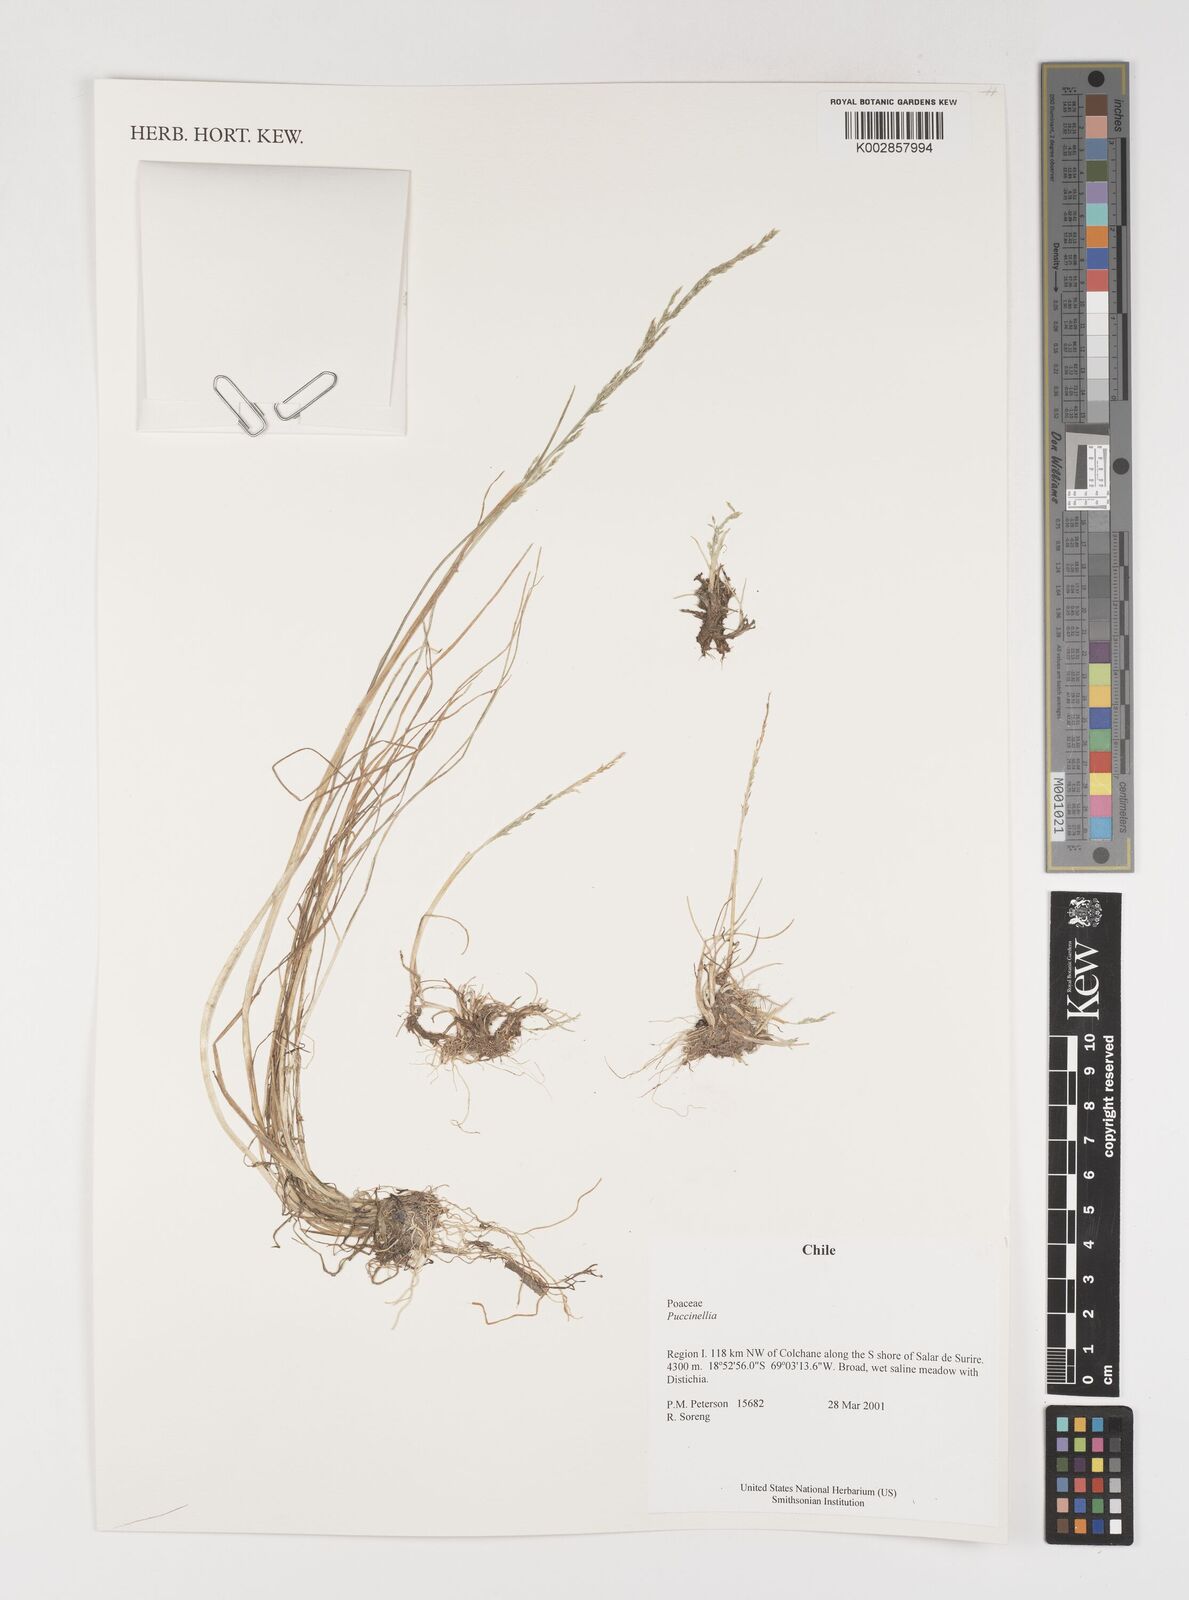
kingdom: Plantae
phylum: Tracheophyta
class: Liliopsida
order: Poales
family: Poaceae
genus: Puccinellia
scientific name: Puccinellia
